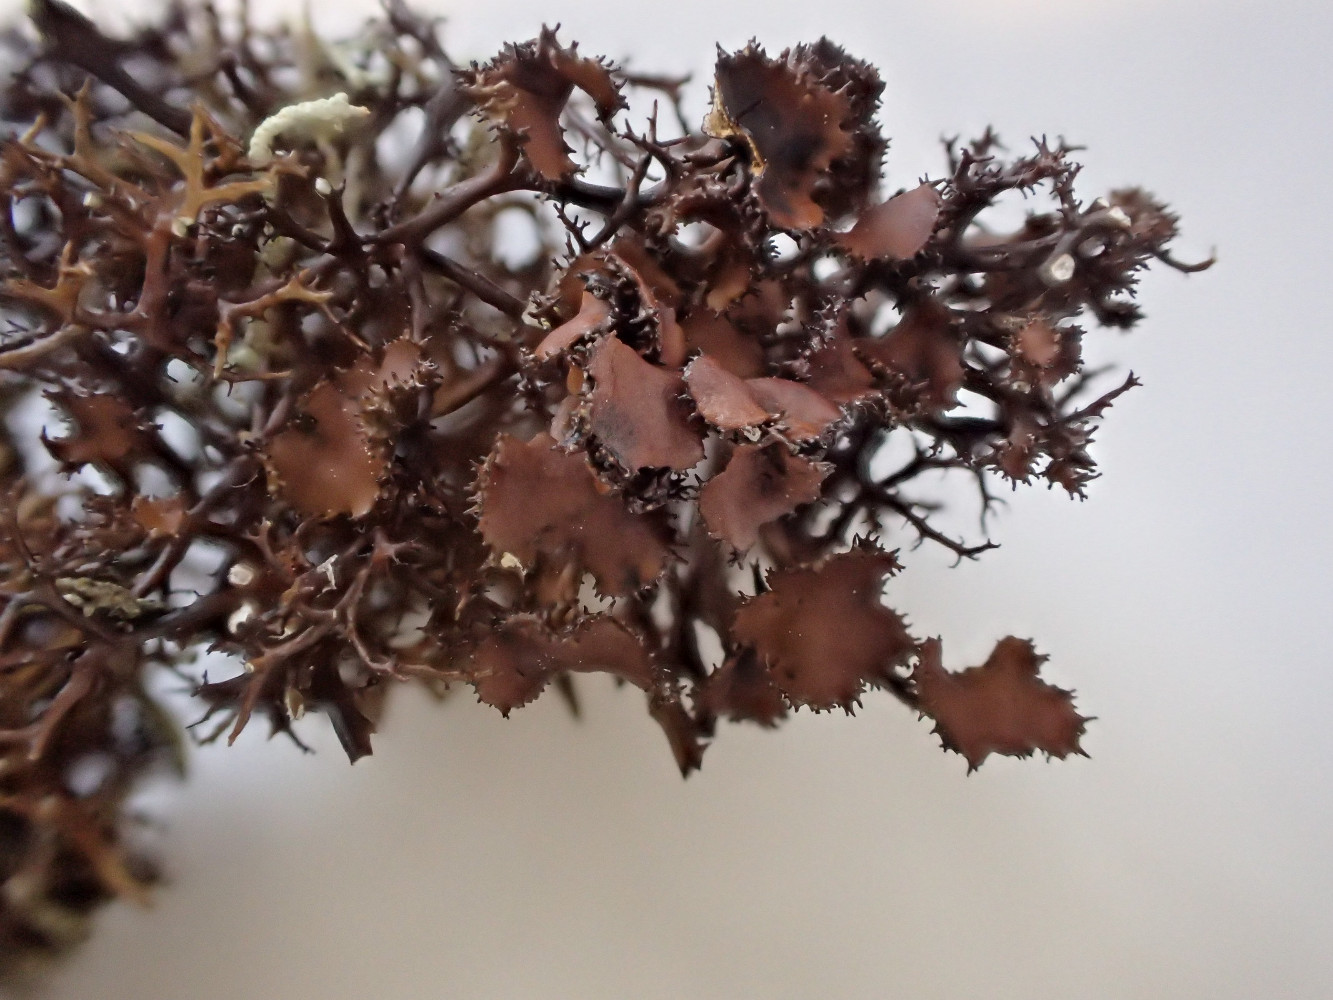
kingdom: Fungi
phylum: Ascomycota
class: Lecanoromycetes
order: Lecanorales
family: Parmeliaceae
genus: Cetraria
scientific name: Cetraria muricata
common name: tue-tjørnelav
